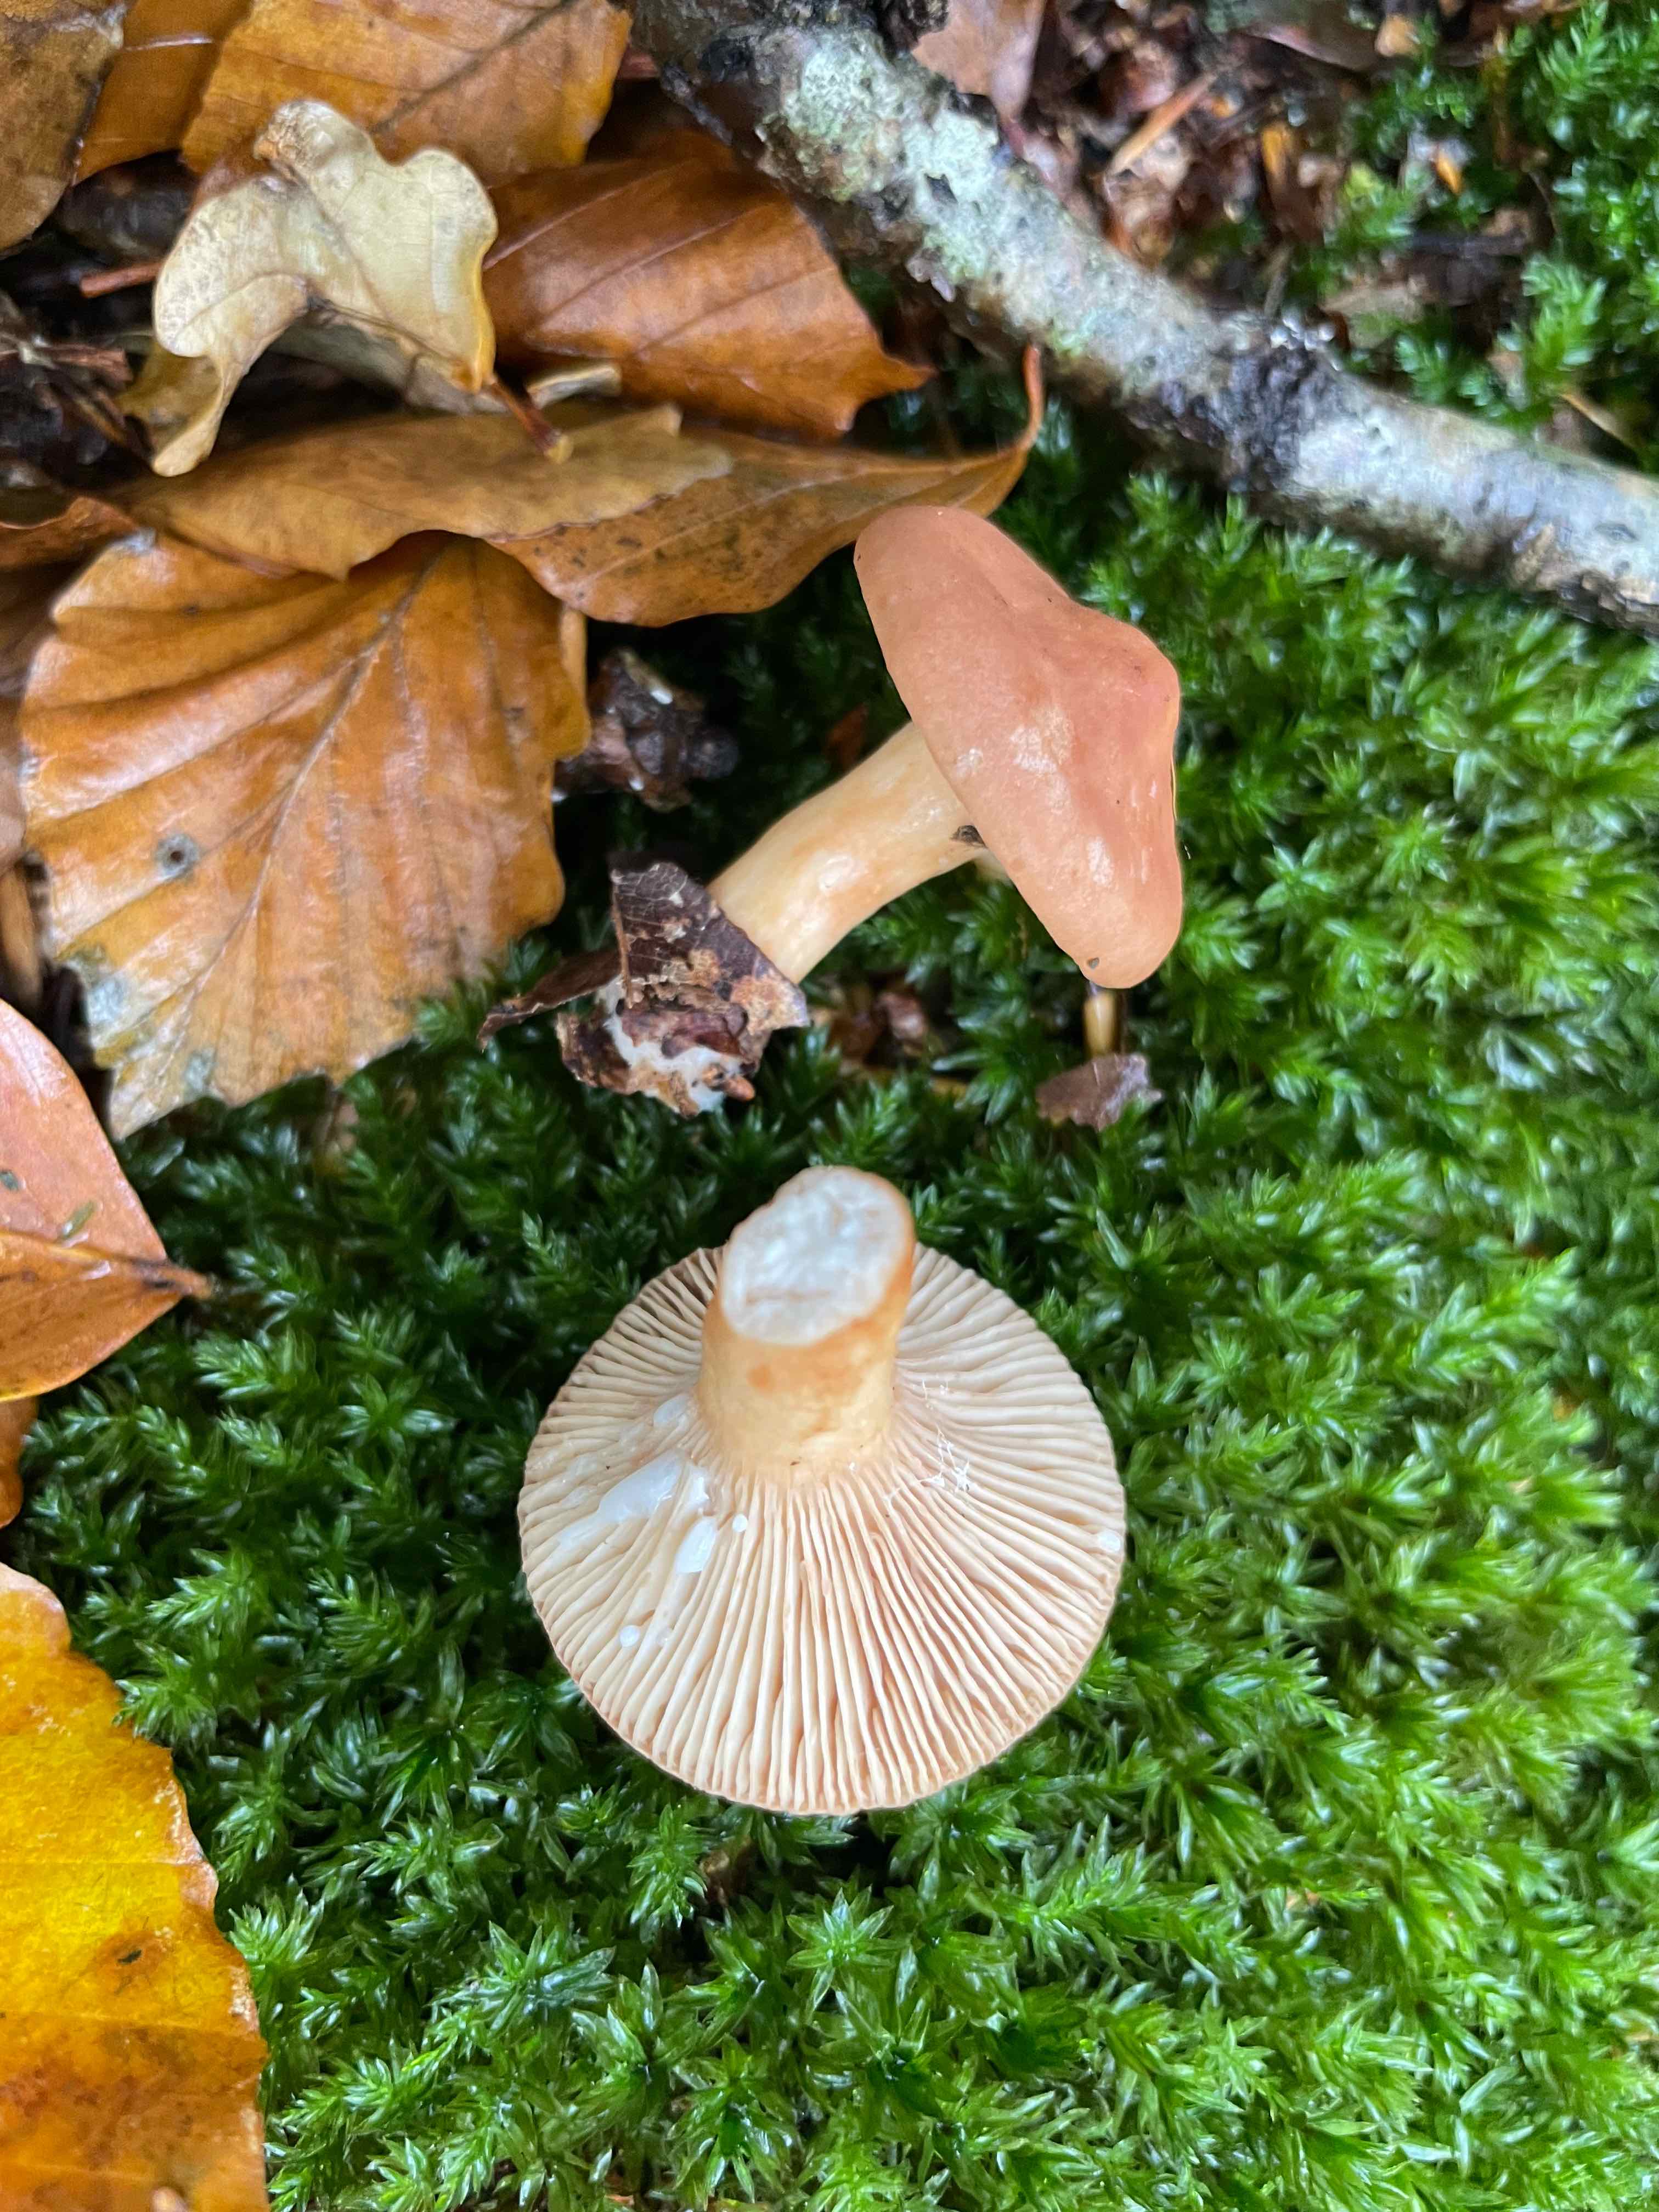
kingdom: Fungi
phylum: Basidiomycota
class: Agaricomycetes
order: Russulales
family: Russulaceae
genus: Lactarius
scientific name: Lactarius subdulcis
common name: sødlig mælkehat
